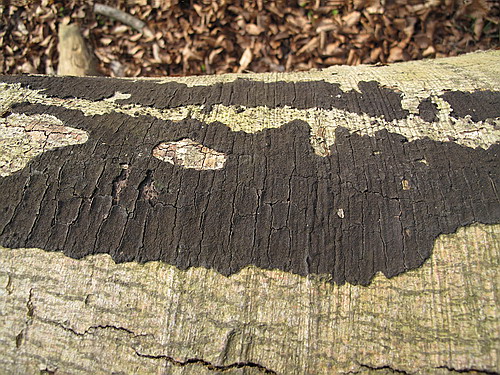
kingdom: Fungi
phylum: Ascomycota
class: Sordariomycetes
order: Xylariales
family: Diatrypaceae
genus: Eutypa
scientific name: Eutypa spinosa
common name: grov kulskorpe
